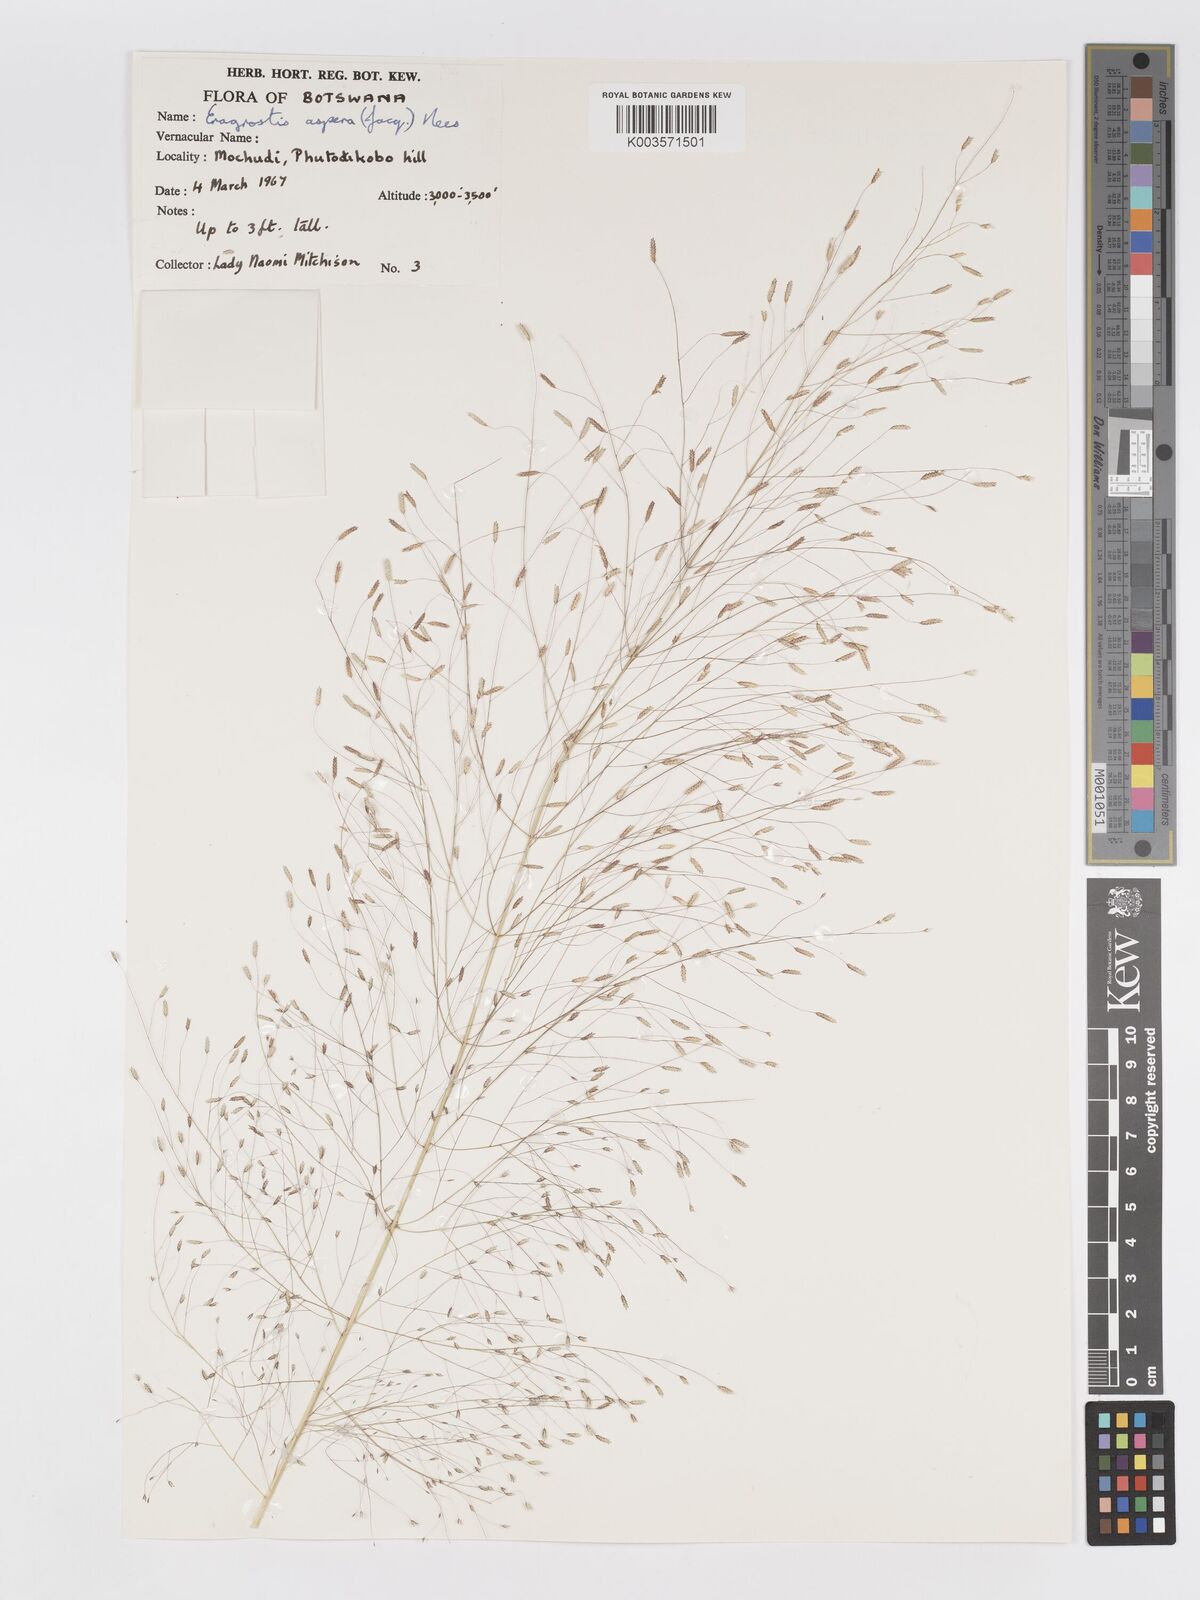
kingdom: Plantae
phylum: Tracheophyta
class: Liliopsida
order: Poales
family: Poaceae
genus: Eragrostis
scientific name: Eragrostis aspera
